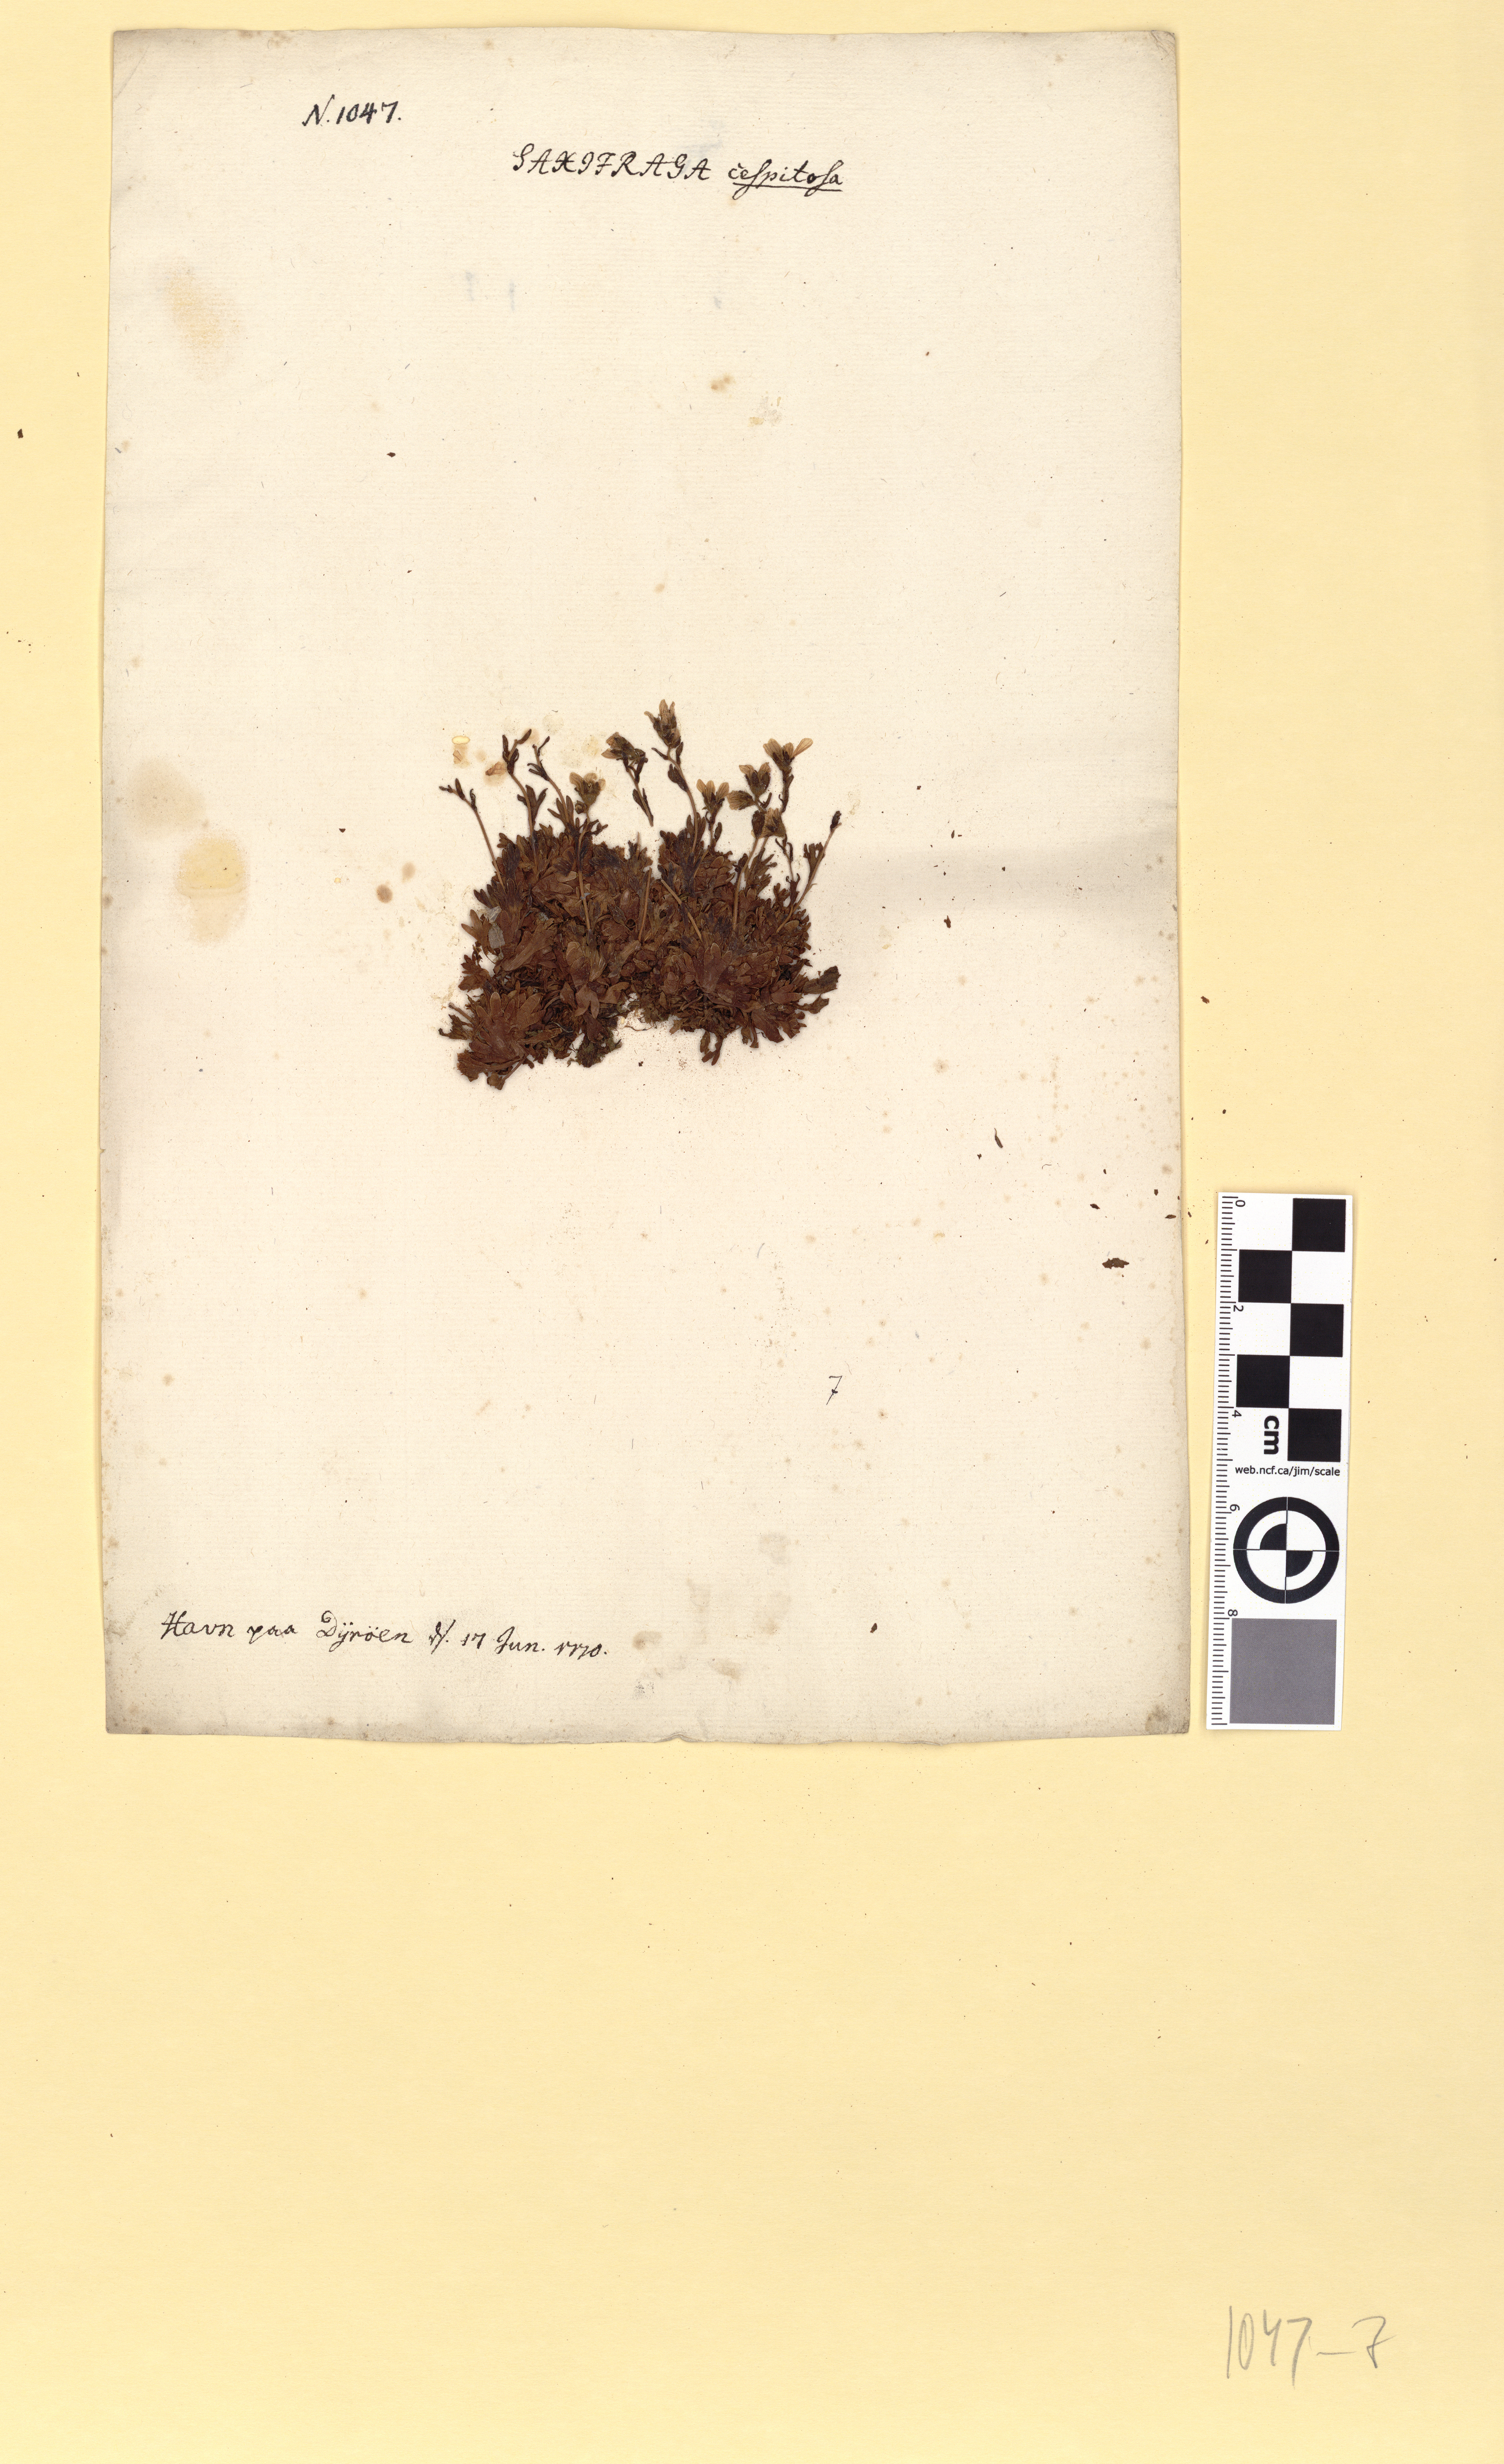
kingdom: Plantae
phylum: Tracheophyta
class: Magnoliopsida
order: Saxifragales
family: Saxifragaceae
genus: Saxifraga
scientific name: Saxifraga cespitosa
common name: Tufted saxifrage
